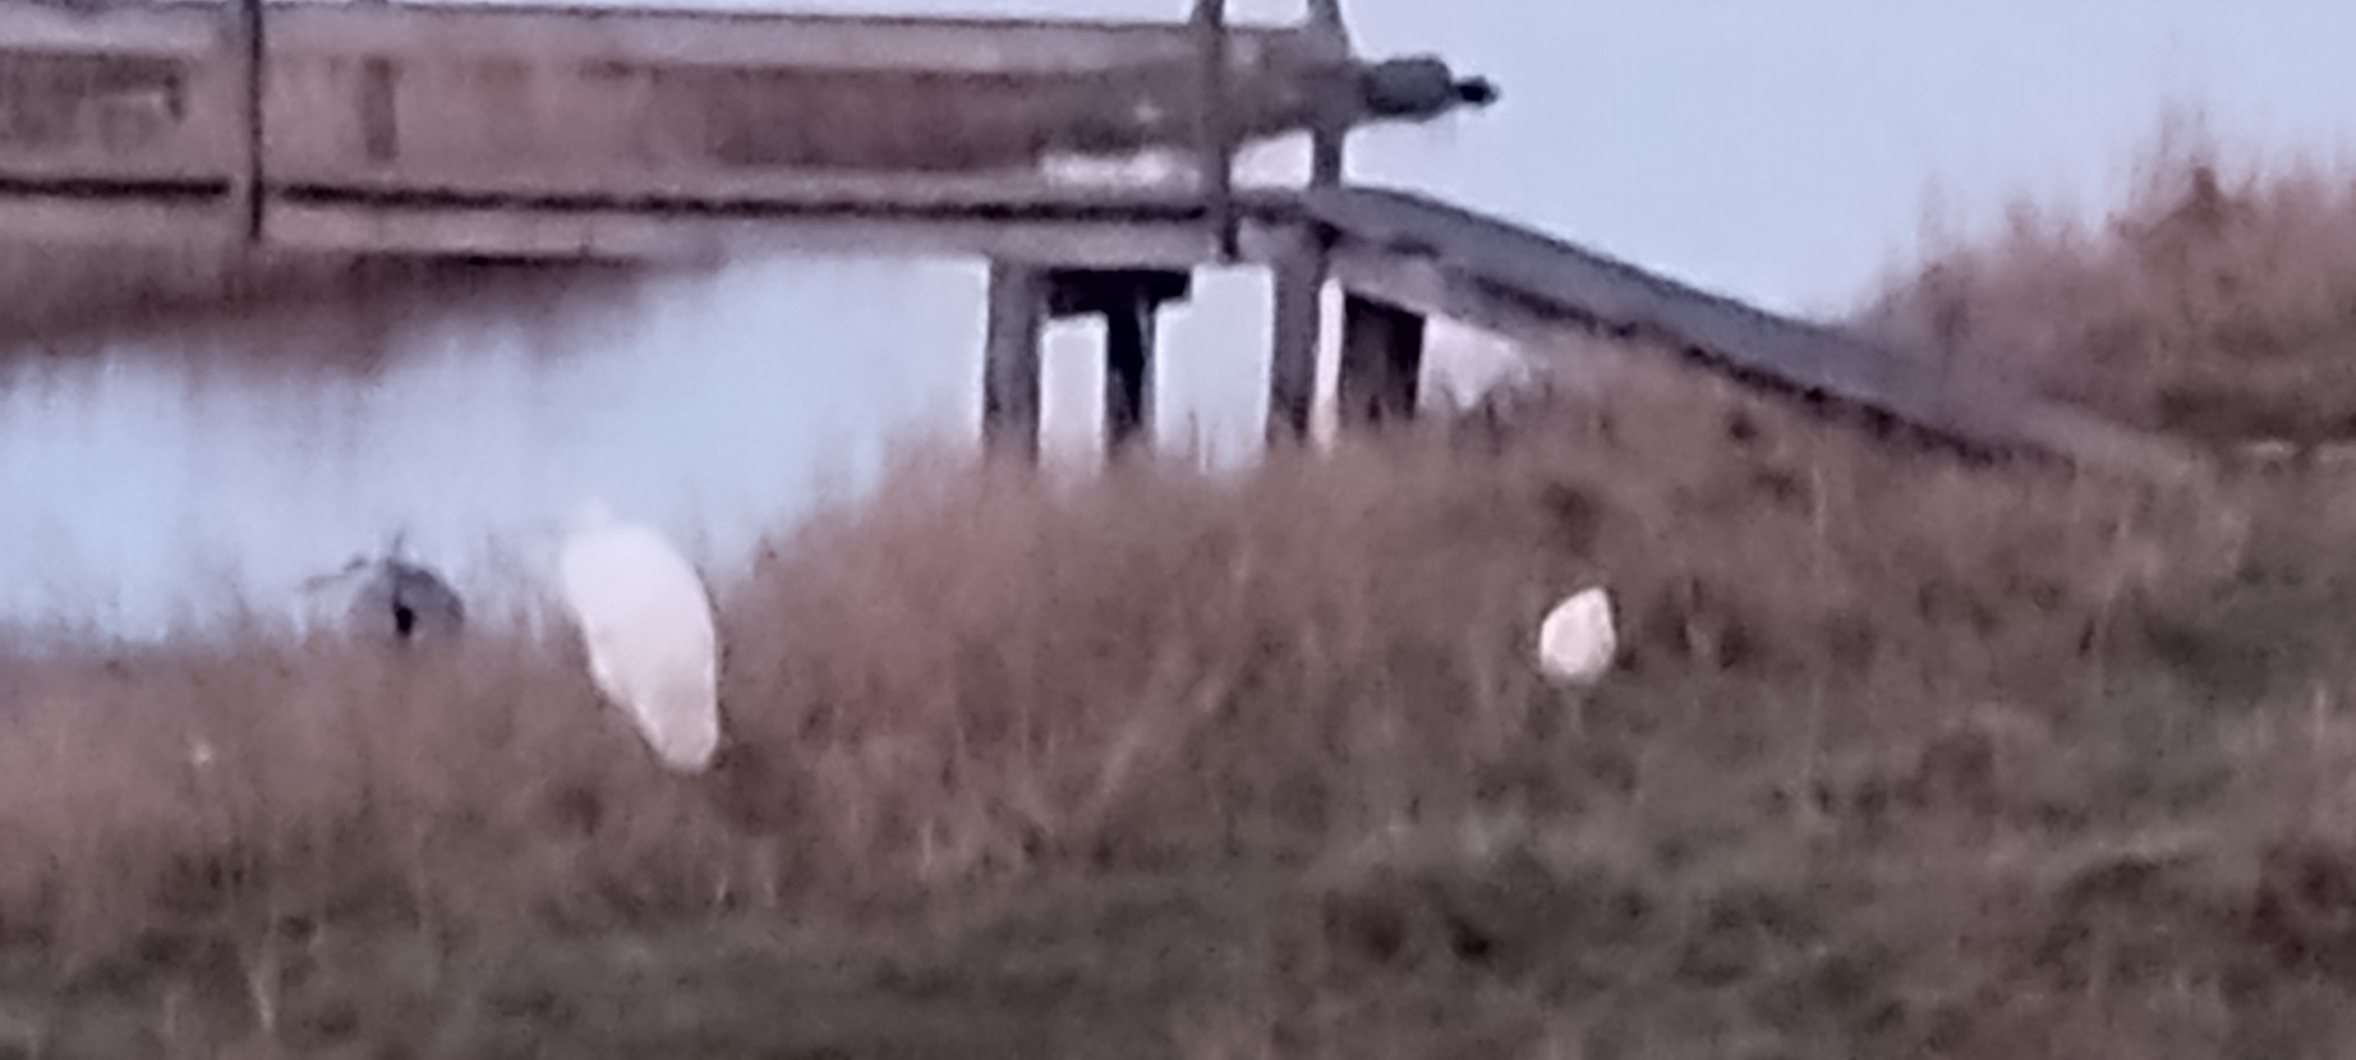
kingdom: Animalia
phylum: Chordata
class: Aves
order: Pelecaniformes
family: Ardeidae
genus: Bubulcus
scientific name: Bubulcus ibis
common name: Kohejre
